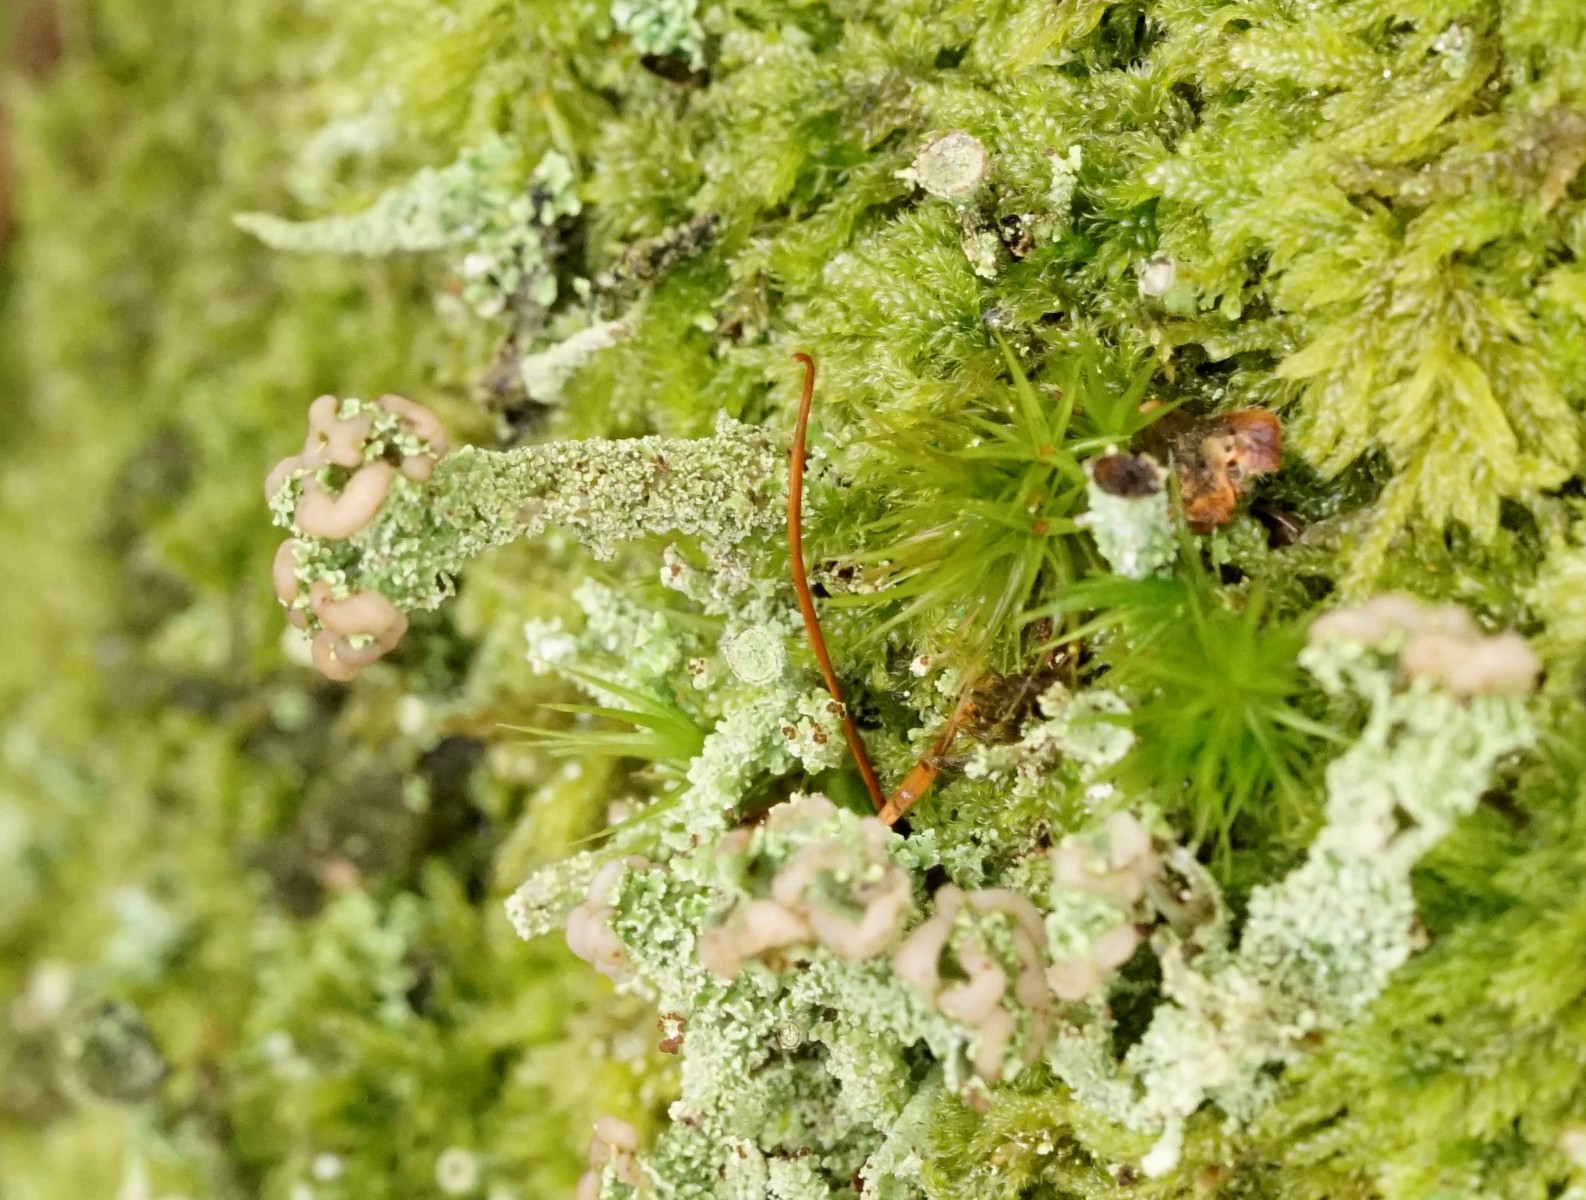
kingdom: Fungi
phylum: Ascomycota
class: Lecanoromycetes
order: Lecanorales
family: Cladoniaceae
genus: Cladonia
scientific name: Cladonia ramulosa
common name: kliddet bægerlav
